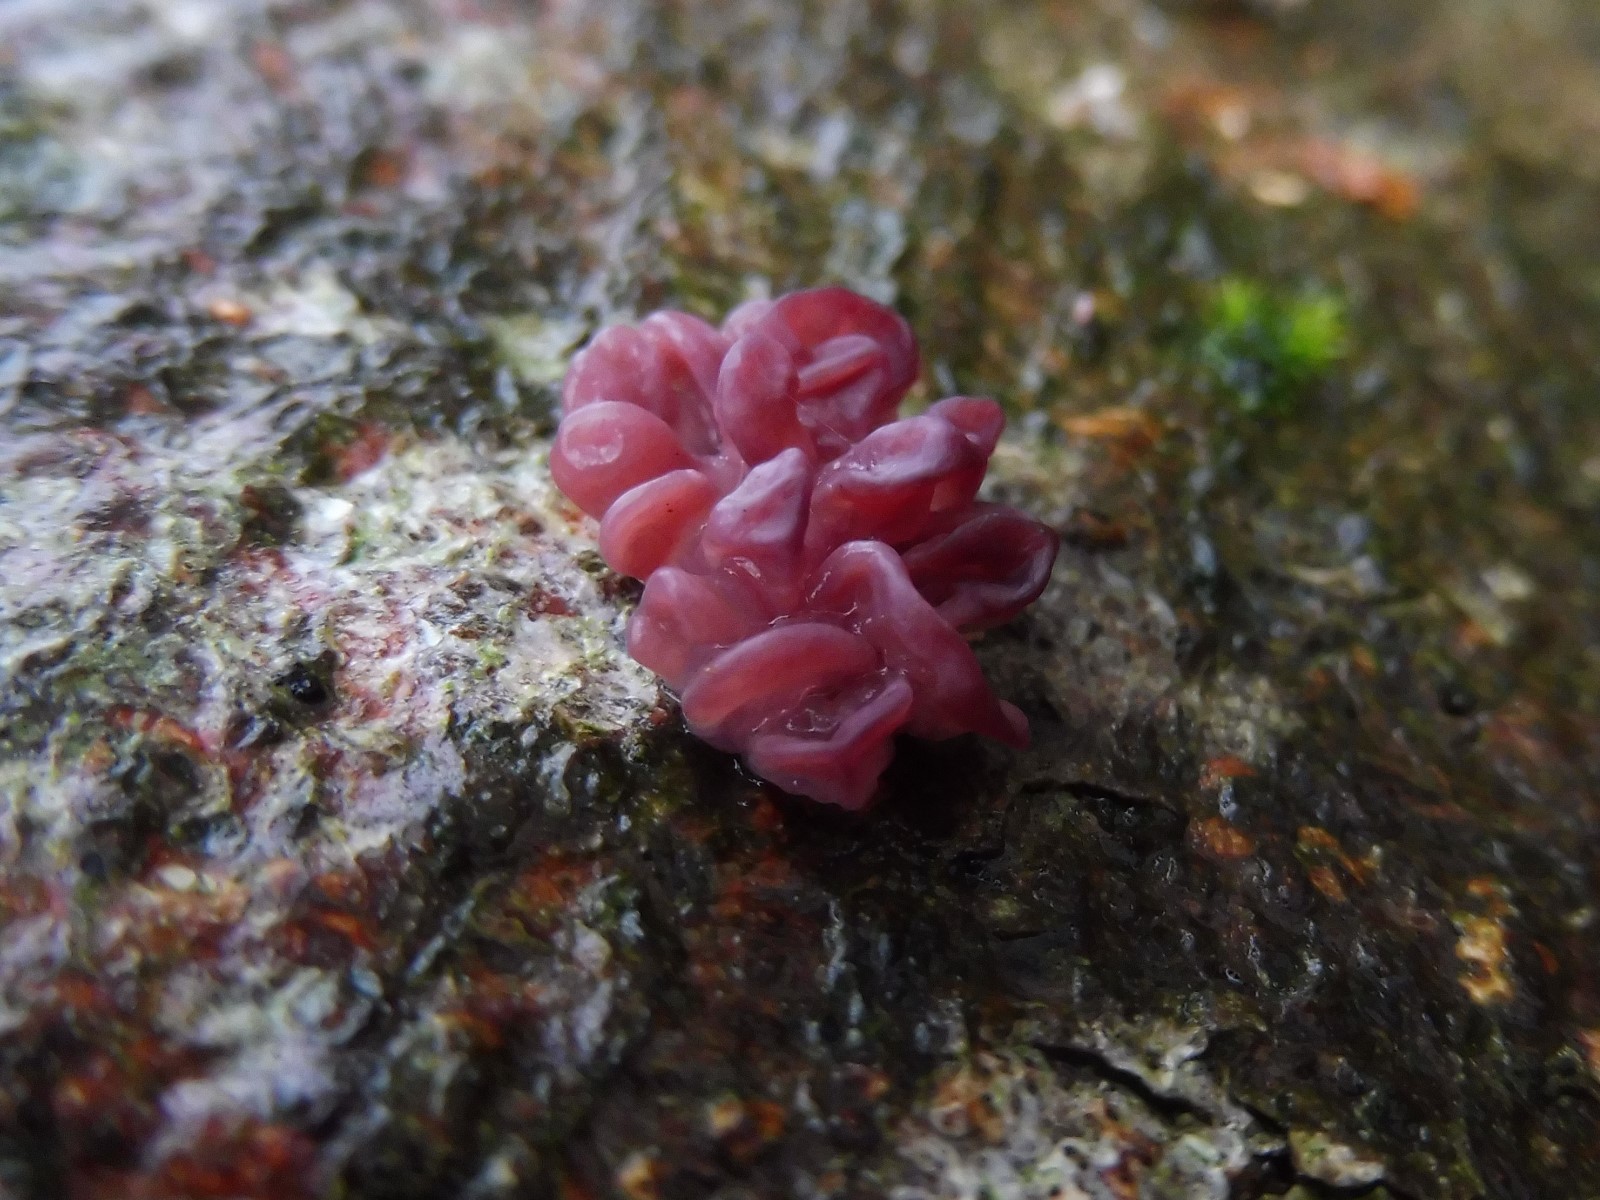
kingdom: Fungi
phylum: Ascomycota
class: Leotiomycetes
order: Helotiales
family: Gelatinodiscaceae
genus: Ascocoryne
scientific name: Ascocoryne sarcoides
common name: rødlilla sejskive
